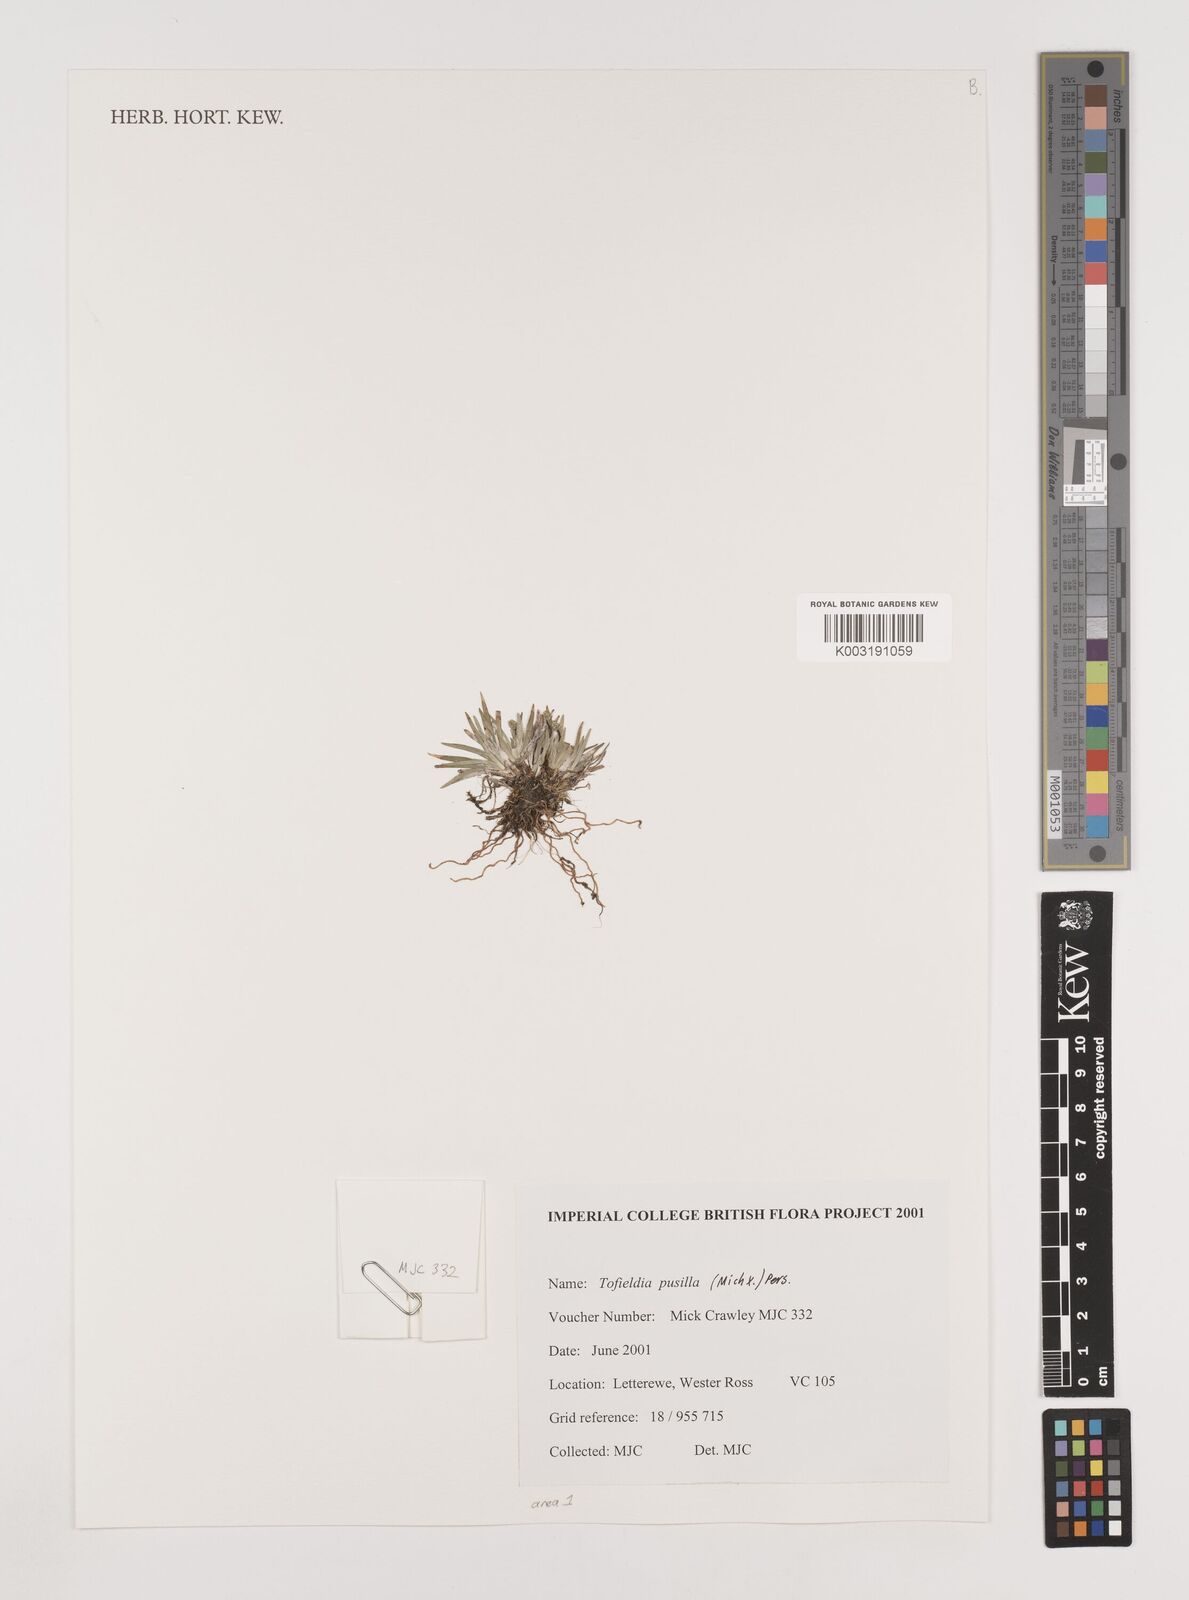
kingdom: Plantae
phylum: Tracheophyta
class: Liliopsida
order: Alismatales
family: Tofieldiaceae
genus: Tofieldia
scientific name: Tofieldia pusilla
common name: Scottish false asphodel
